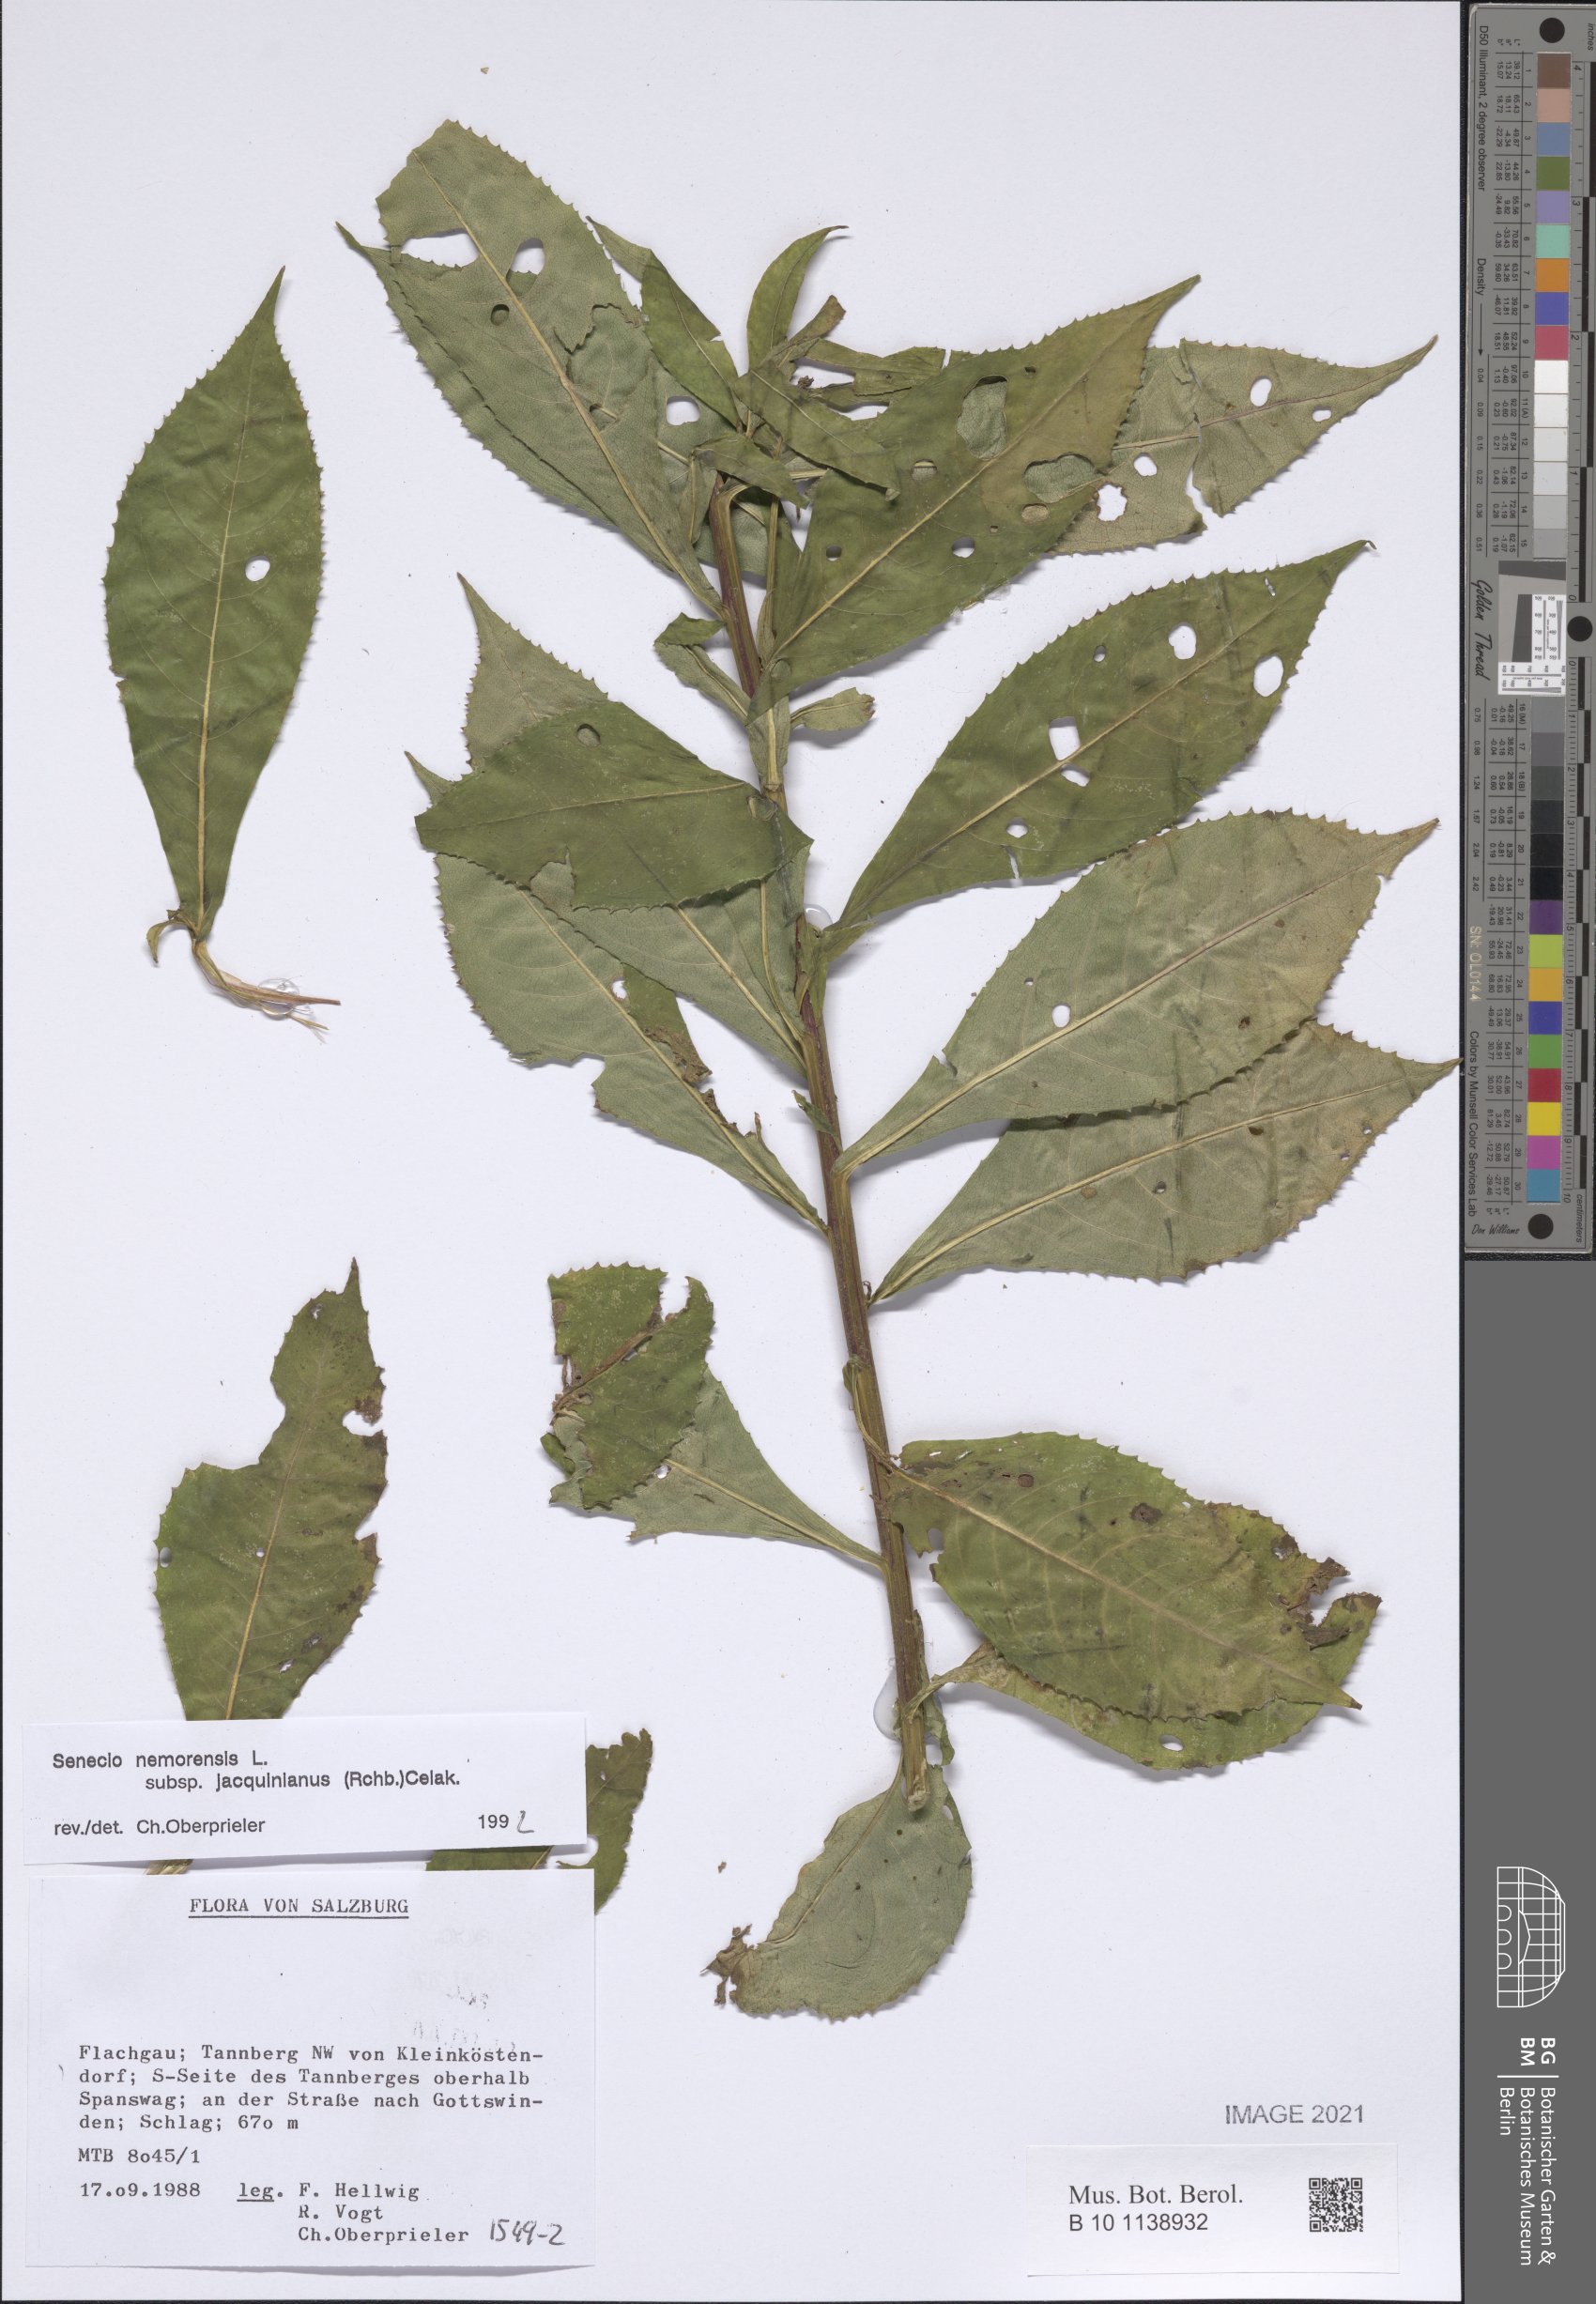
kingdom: Plantae
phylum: Tracheophyta
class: Magnoliopsida
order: Asterales
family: Asteraceae
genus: Senecio
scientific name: Senecio germanicus
